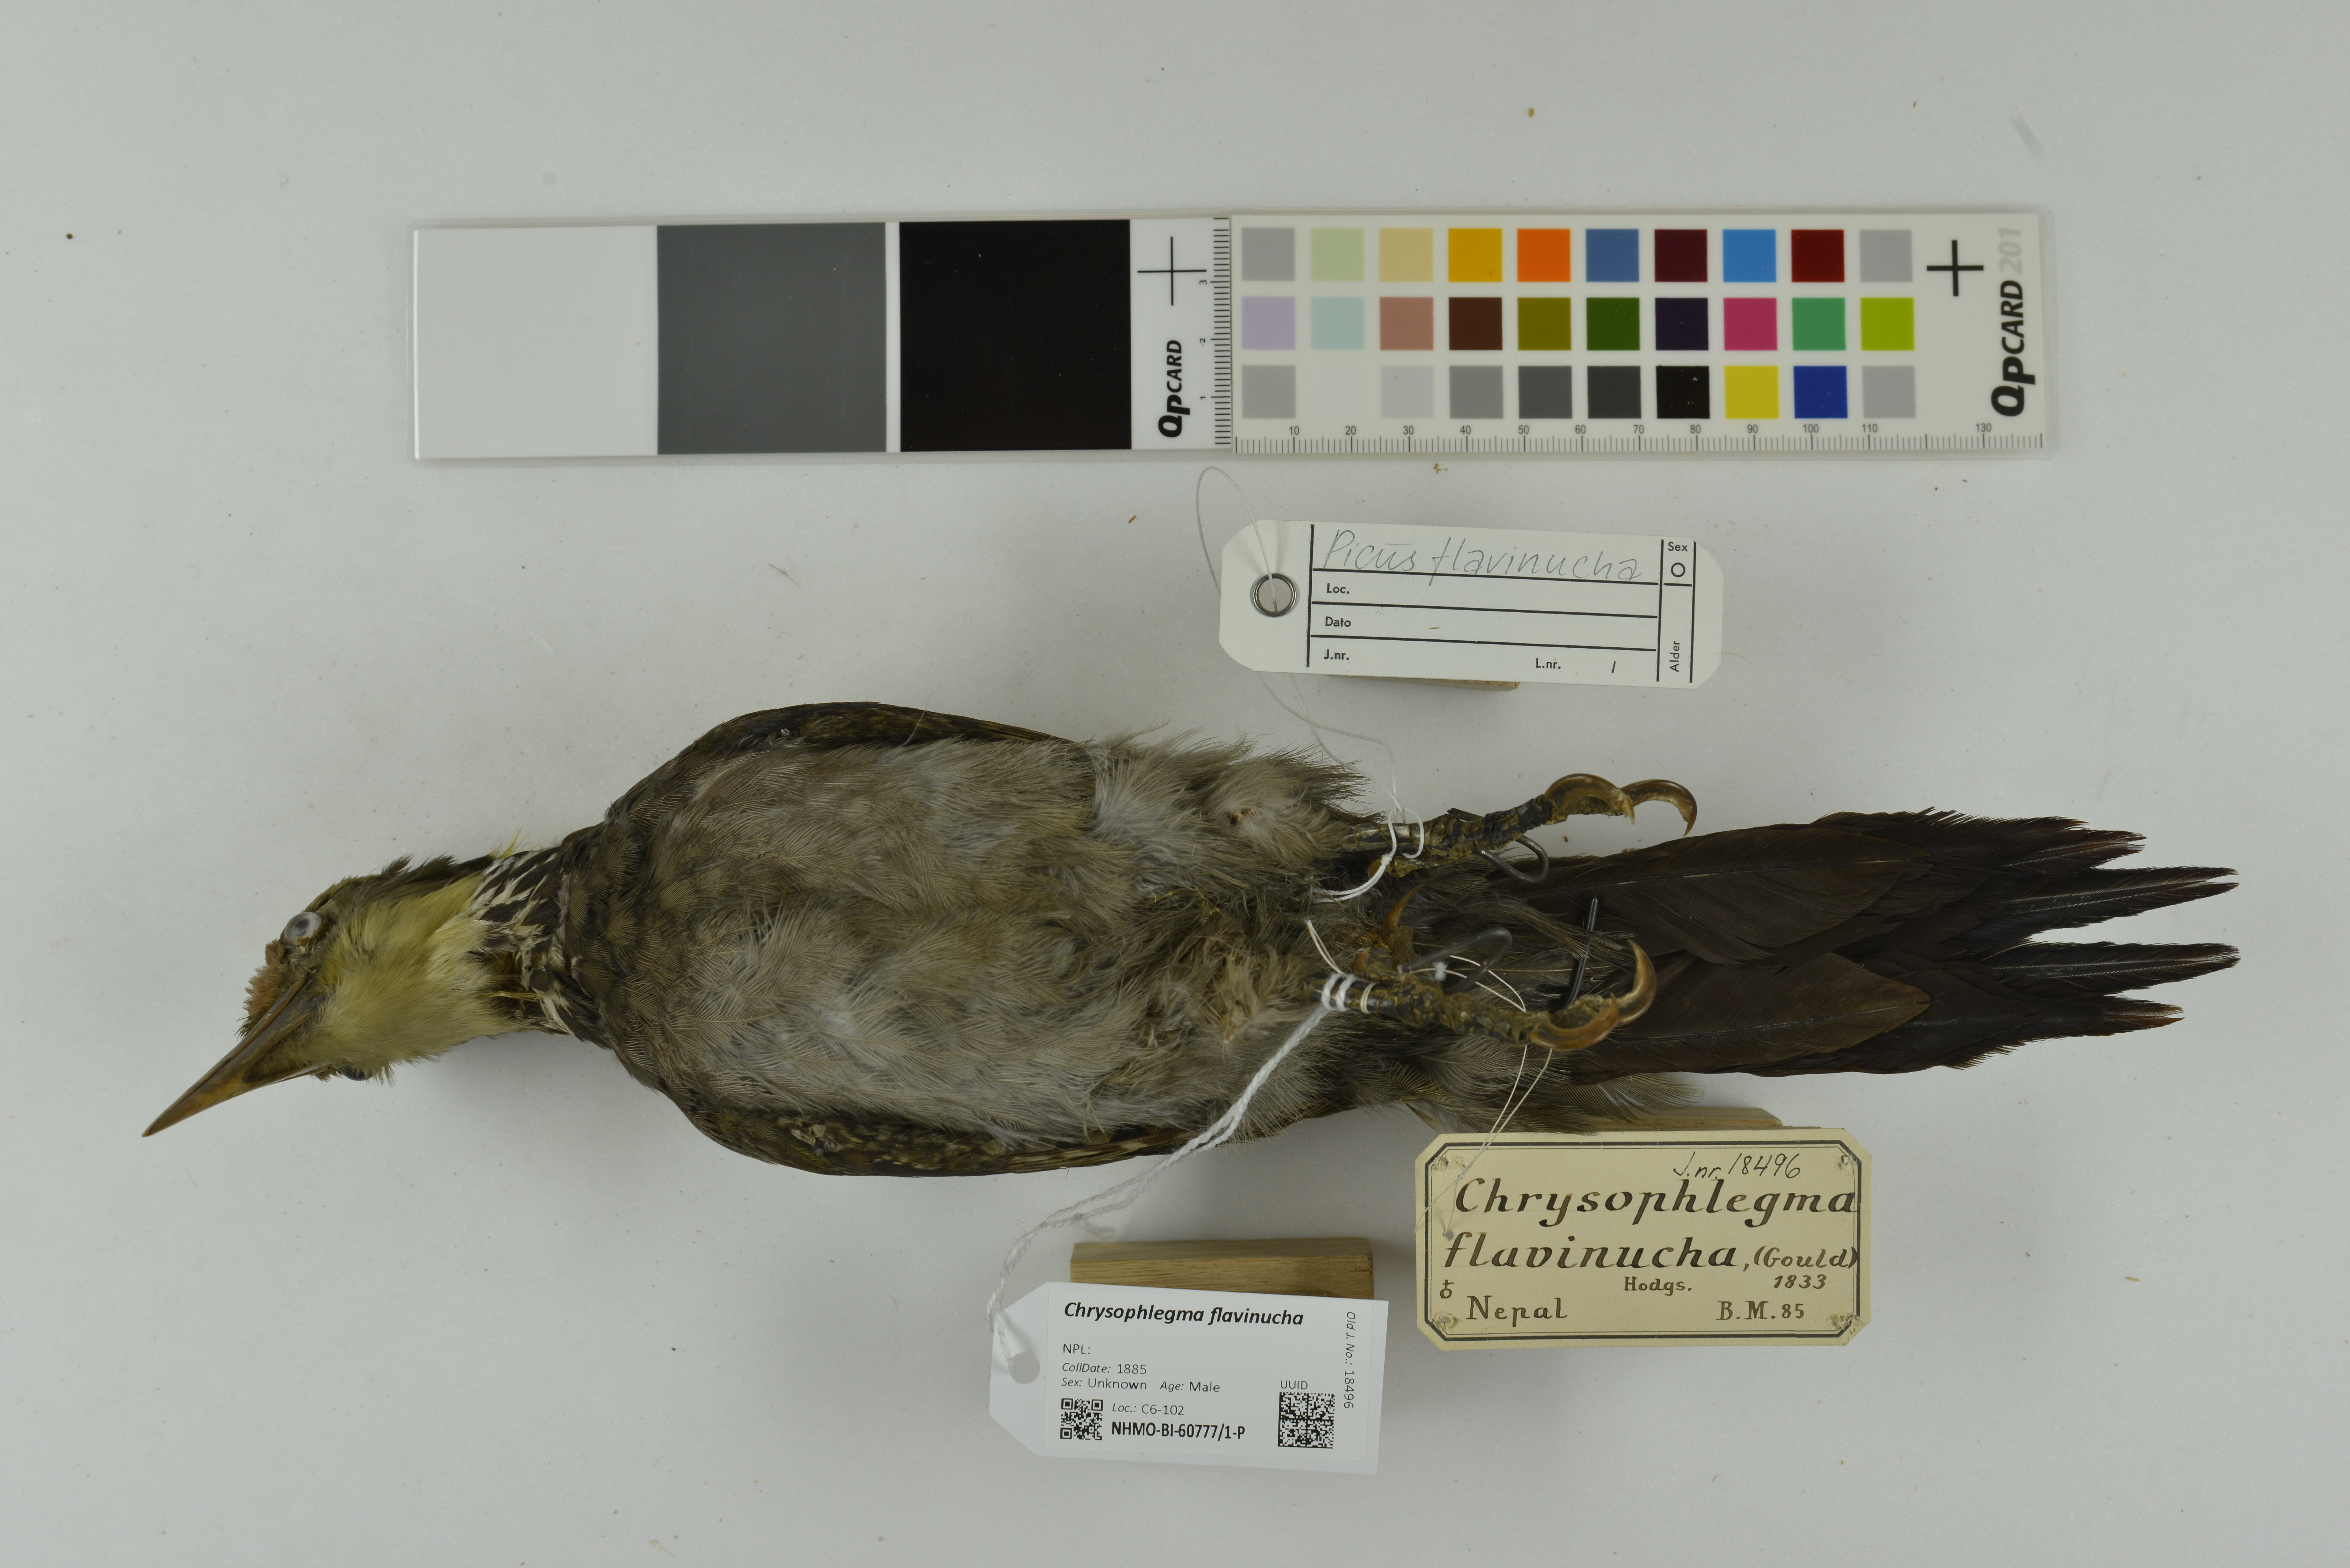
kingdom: Animalia
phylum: Chordata
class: Aves
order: Piciformes
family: Picidae
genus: Chrysophlegma
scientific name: Chrysophlegma flavinucha
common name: Greater yellownape
